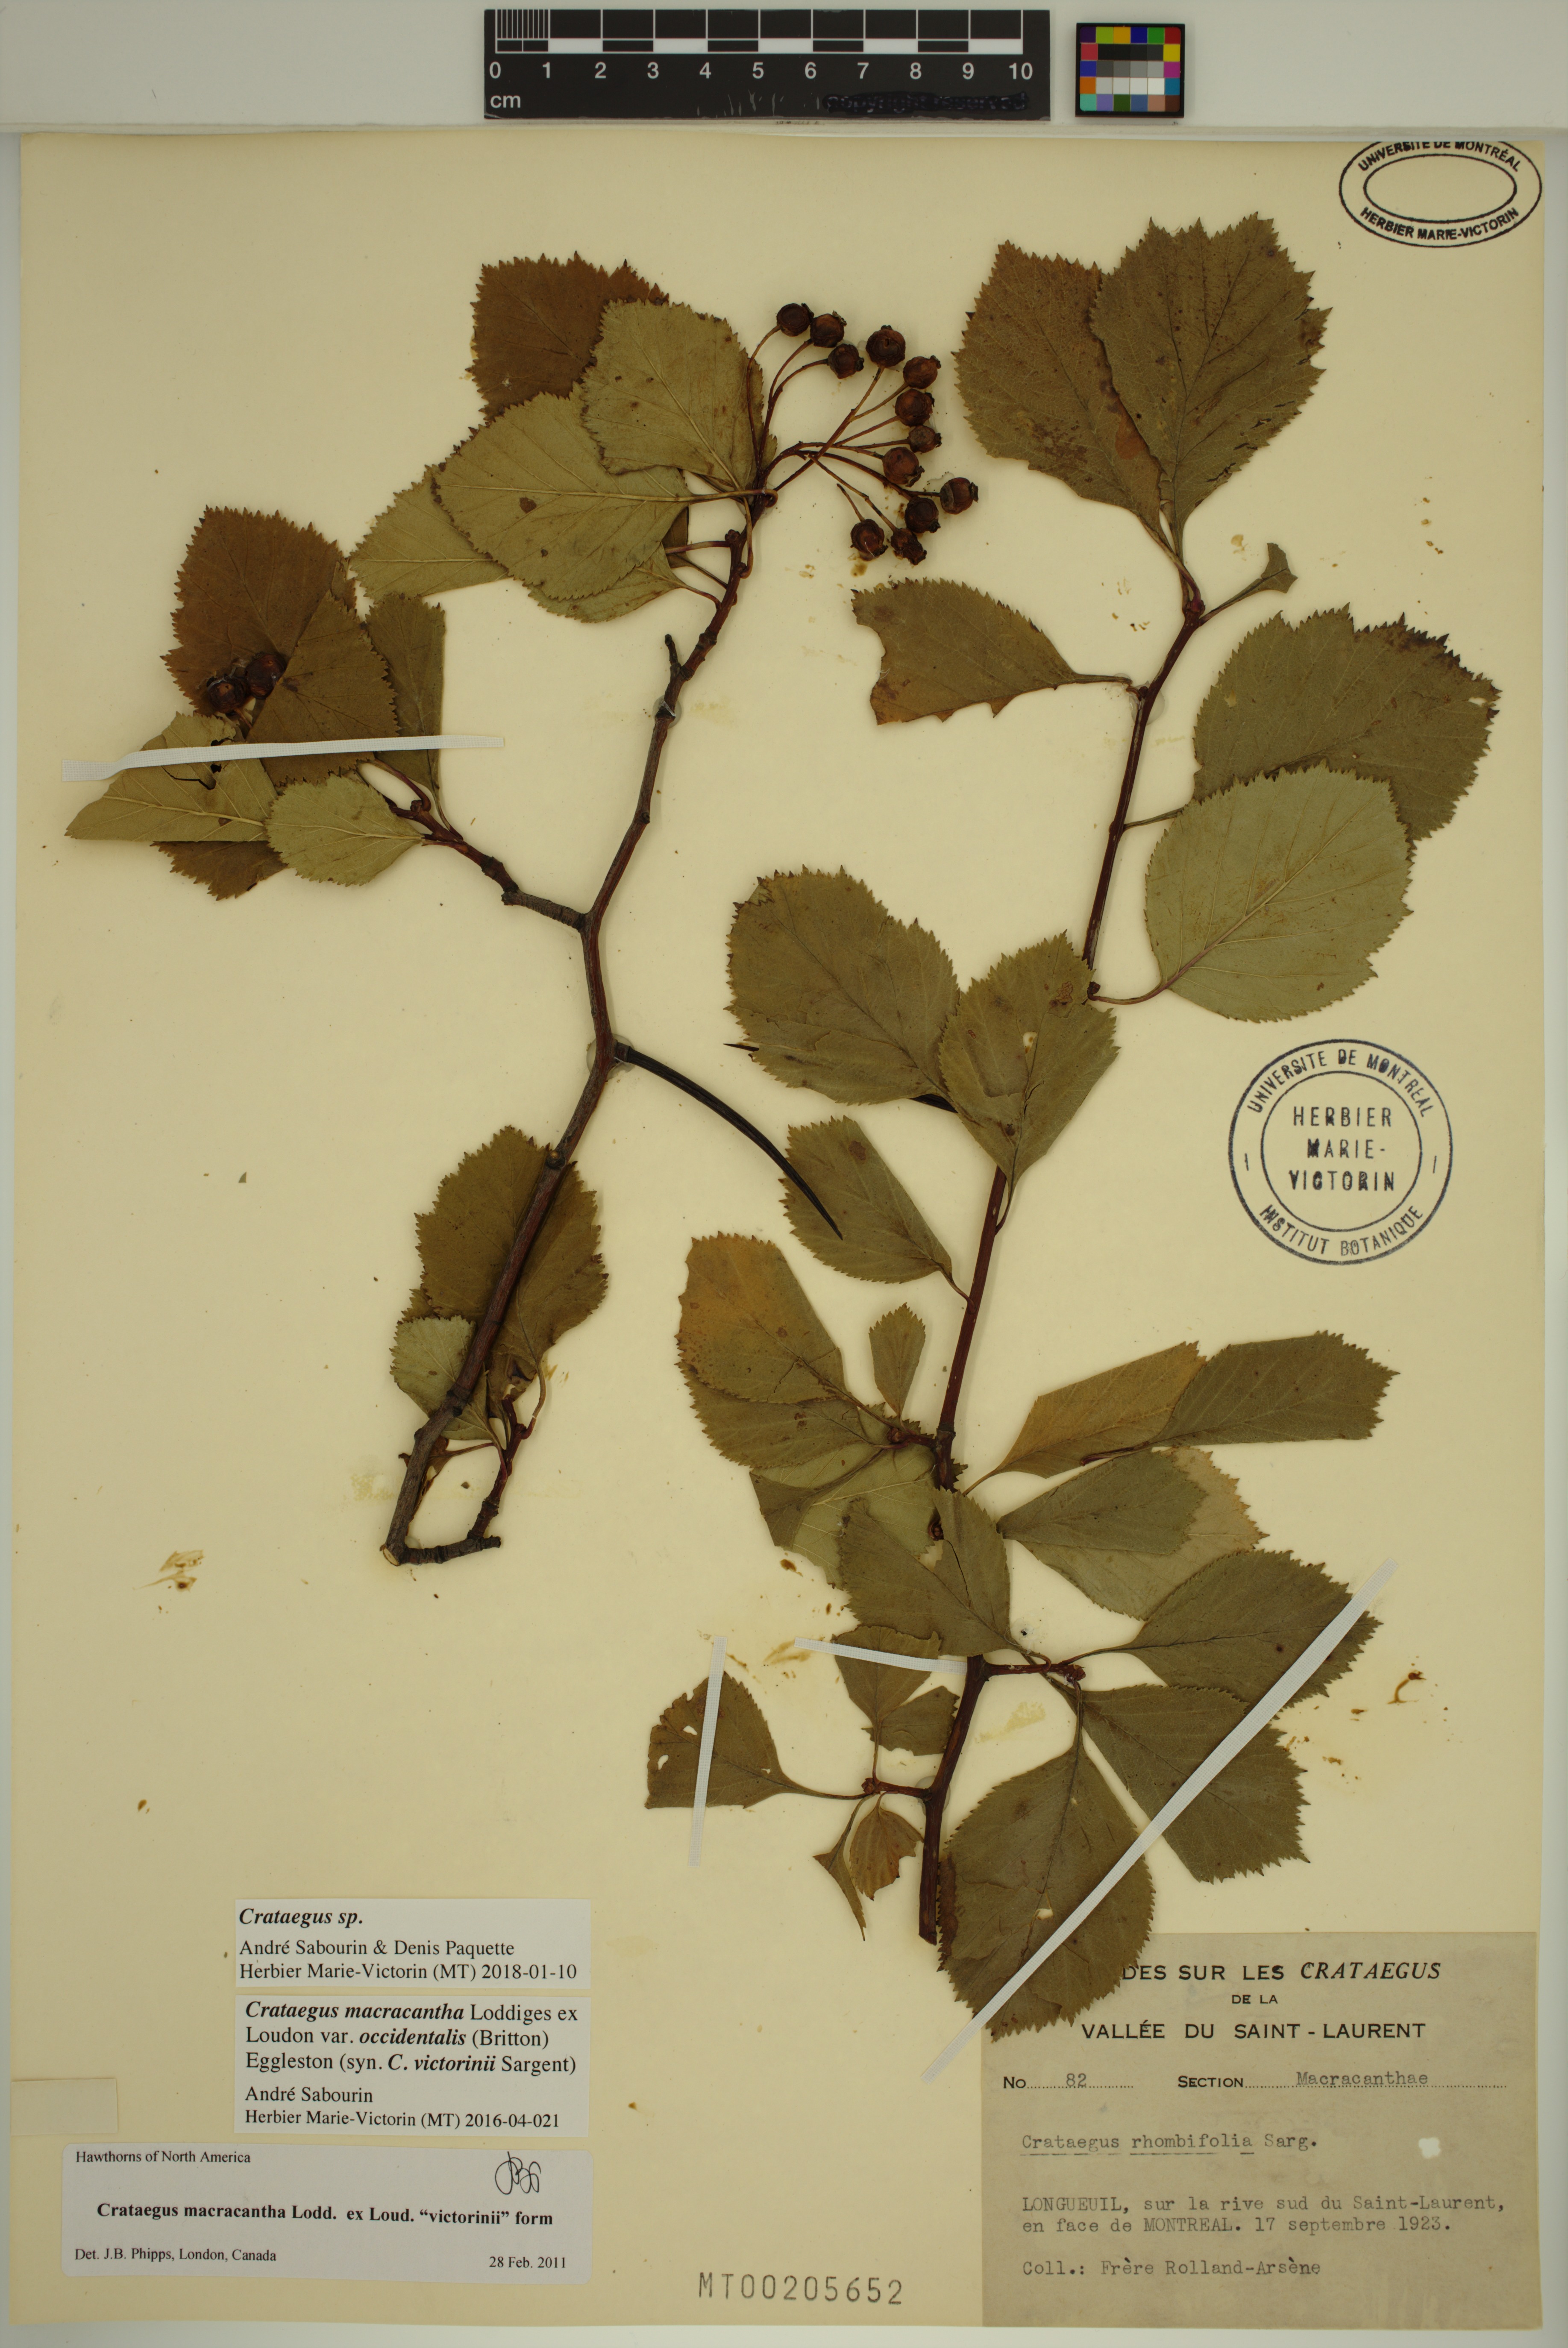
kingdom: Plantae
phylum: Tracheophyta
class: Magnoliopsida
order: Rosales
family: Rosaceae
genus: Crataegus
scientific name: Crataegus macracantha
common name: Large-thorn hawthorn
